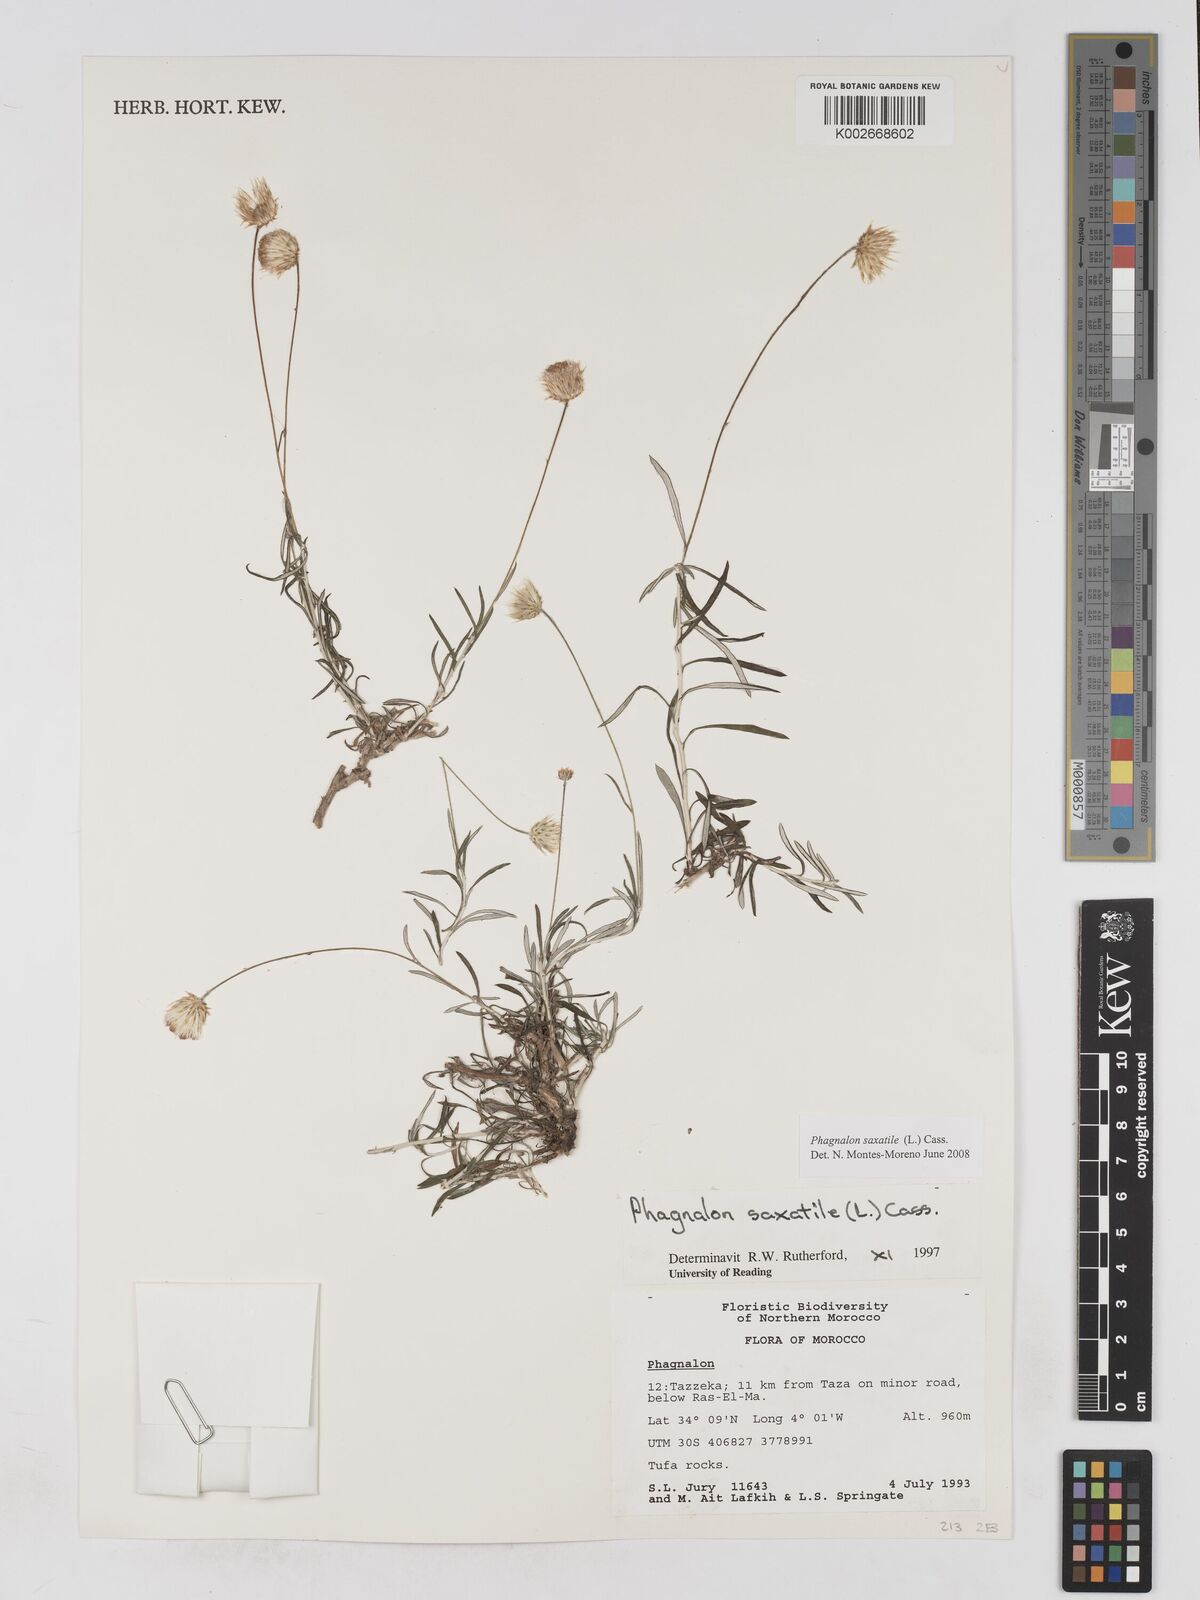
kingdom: Plantae
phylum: Tracheophyta
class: Magnoliopsida
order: Asterales
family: Asteraceae
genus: Phagnalon
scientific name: Phagnalon saxatile
